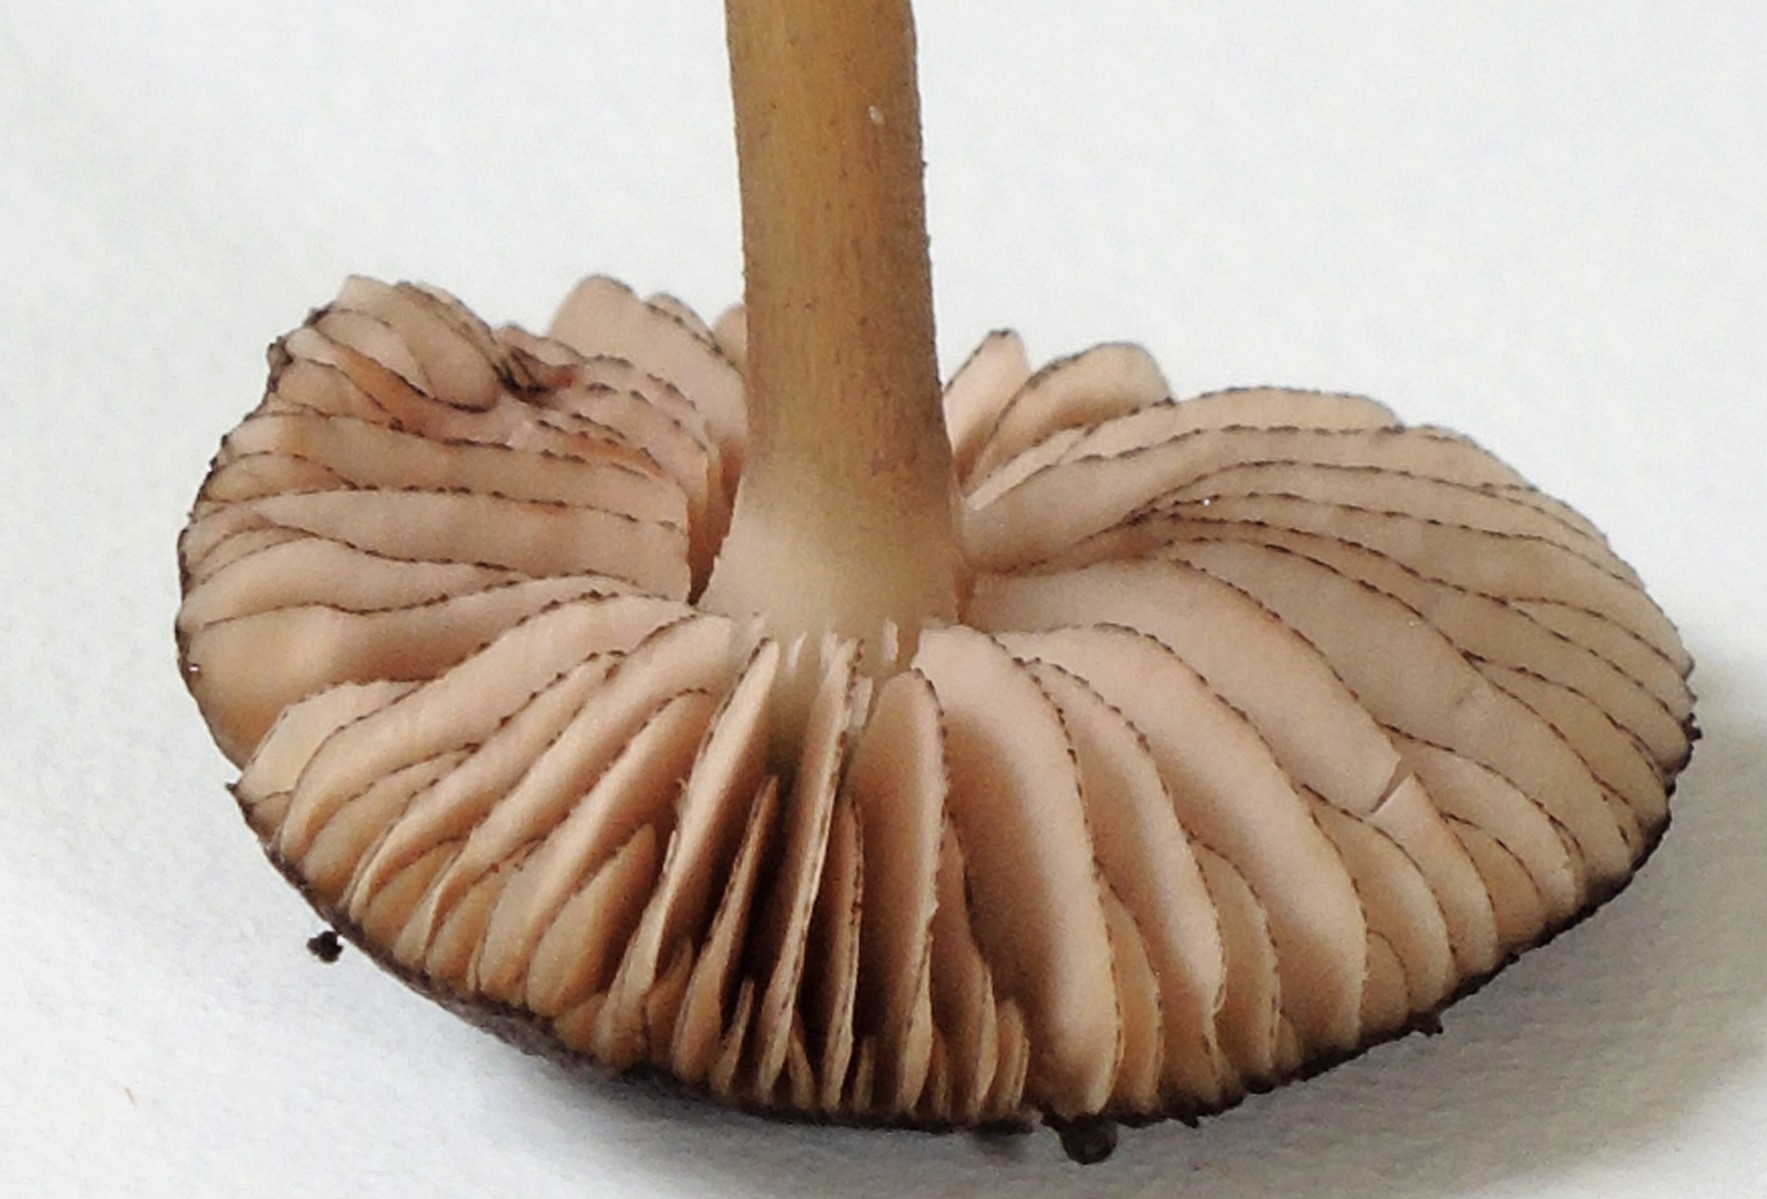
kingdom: Fungi
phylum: Basidiomycota
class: Agaricomycetes
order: Agaricales
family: Entolomataceae
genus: Entoloma
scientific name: Entoloma
